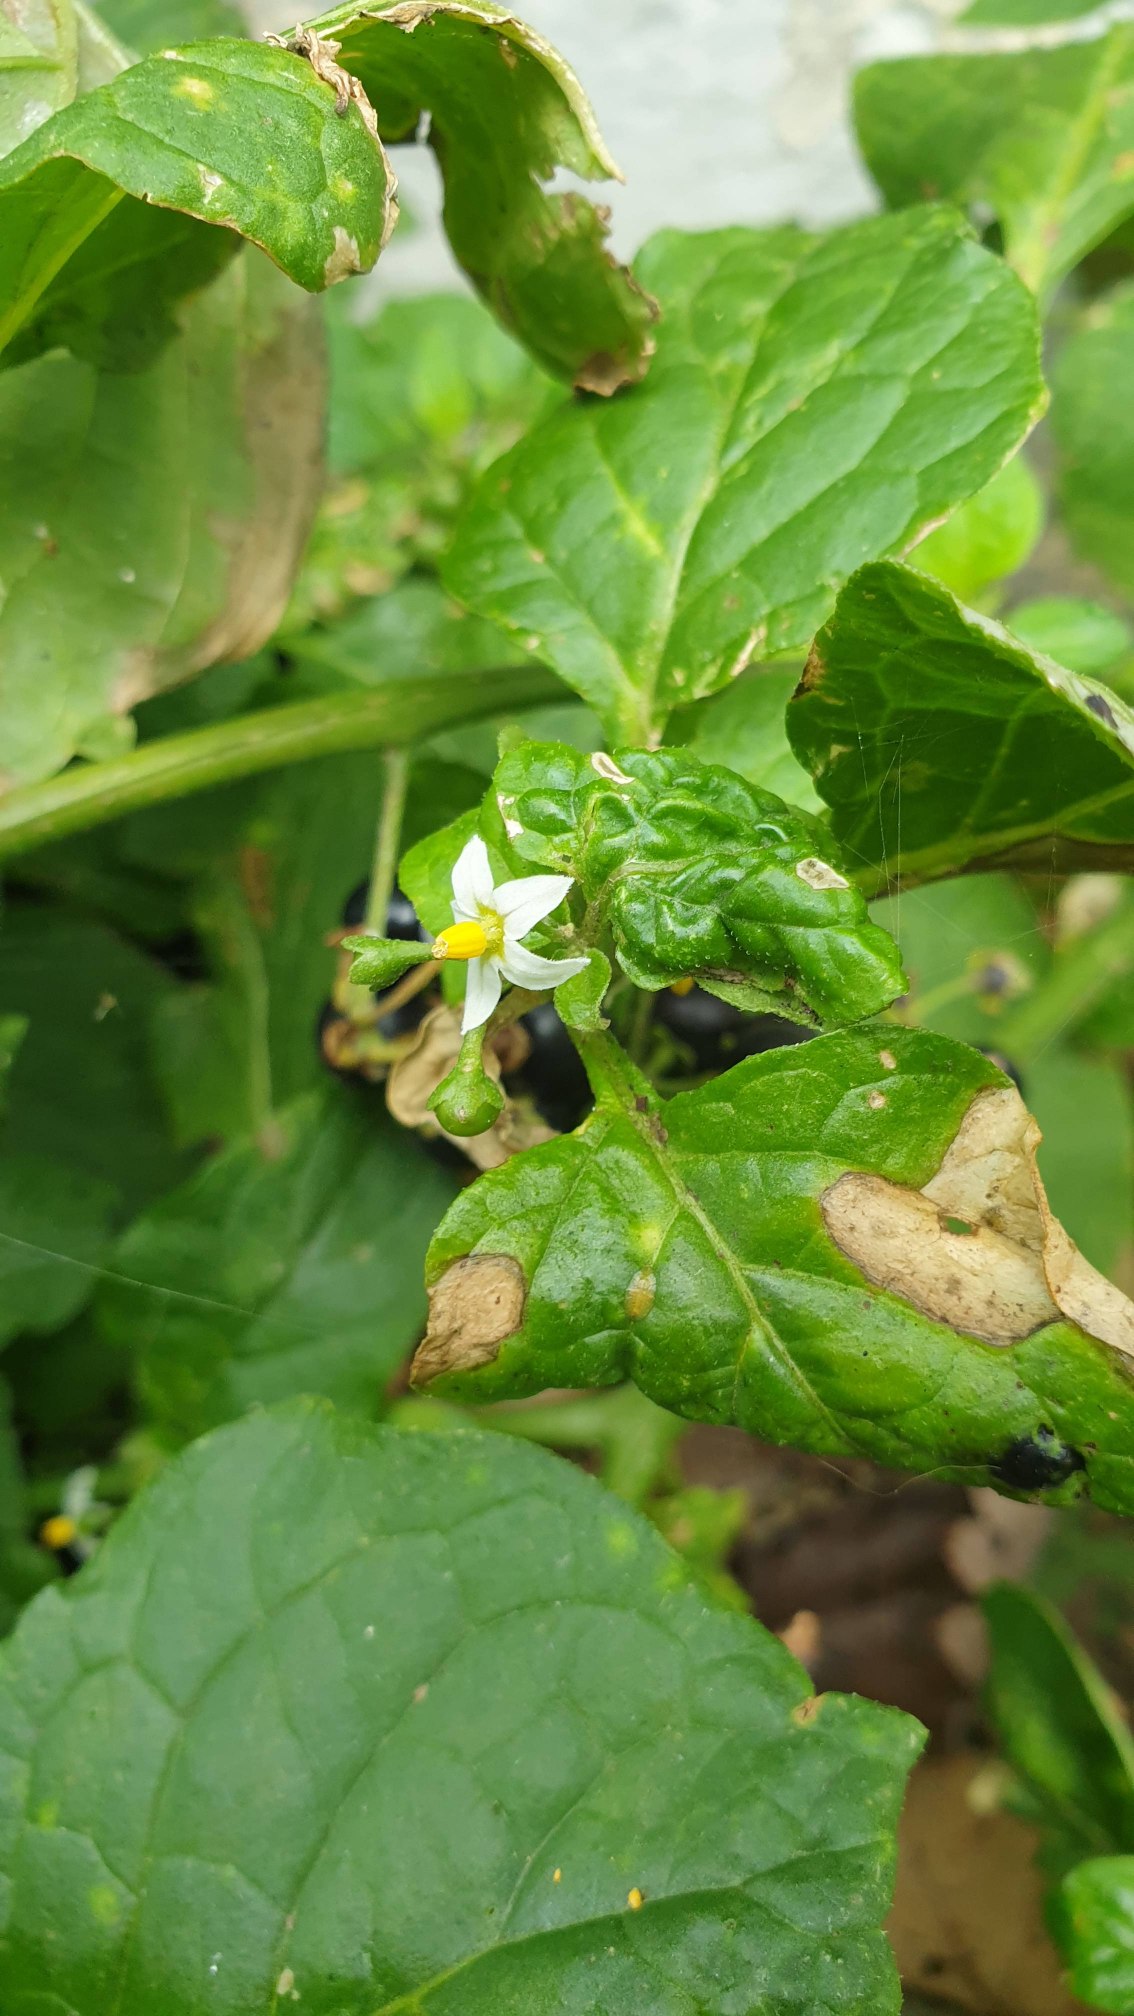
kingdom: Plantae
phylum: Tracheophyta
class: Magnoliopsida
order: Solanales
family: Solanaceae
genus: Solanum
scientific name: Solanum nigrum
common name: Sort natskygge (underart)
